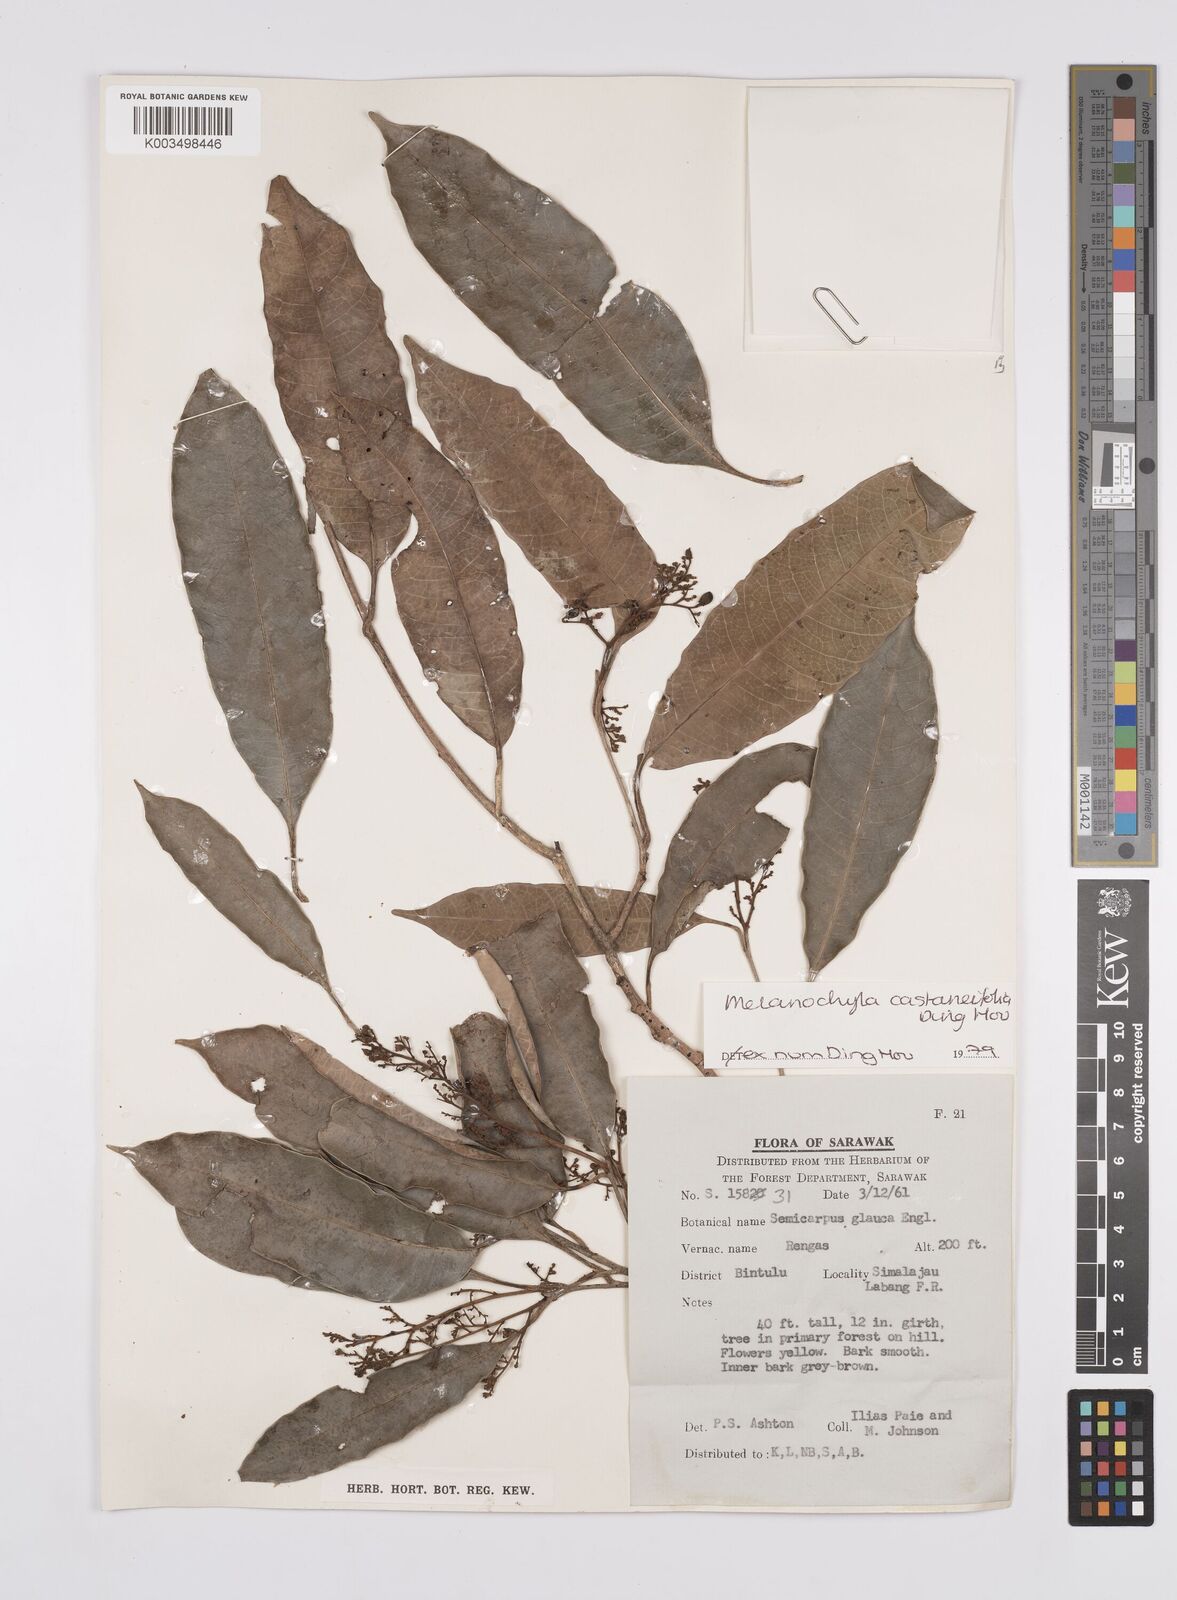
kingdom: Plantae
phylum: Tracheophyta
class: Magnoliopsida
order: Sapindales
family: Anacardiaceae
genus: Melanochyla
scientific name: Melanochyla castaneifolia
